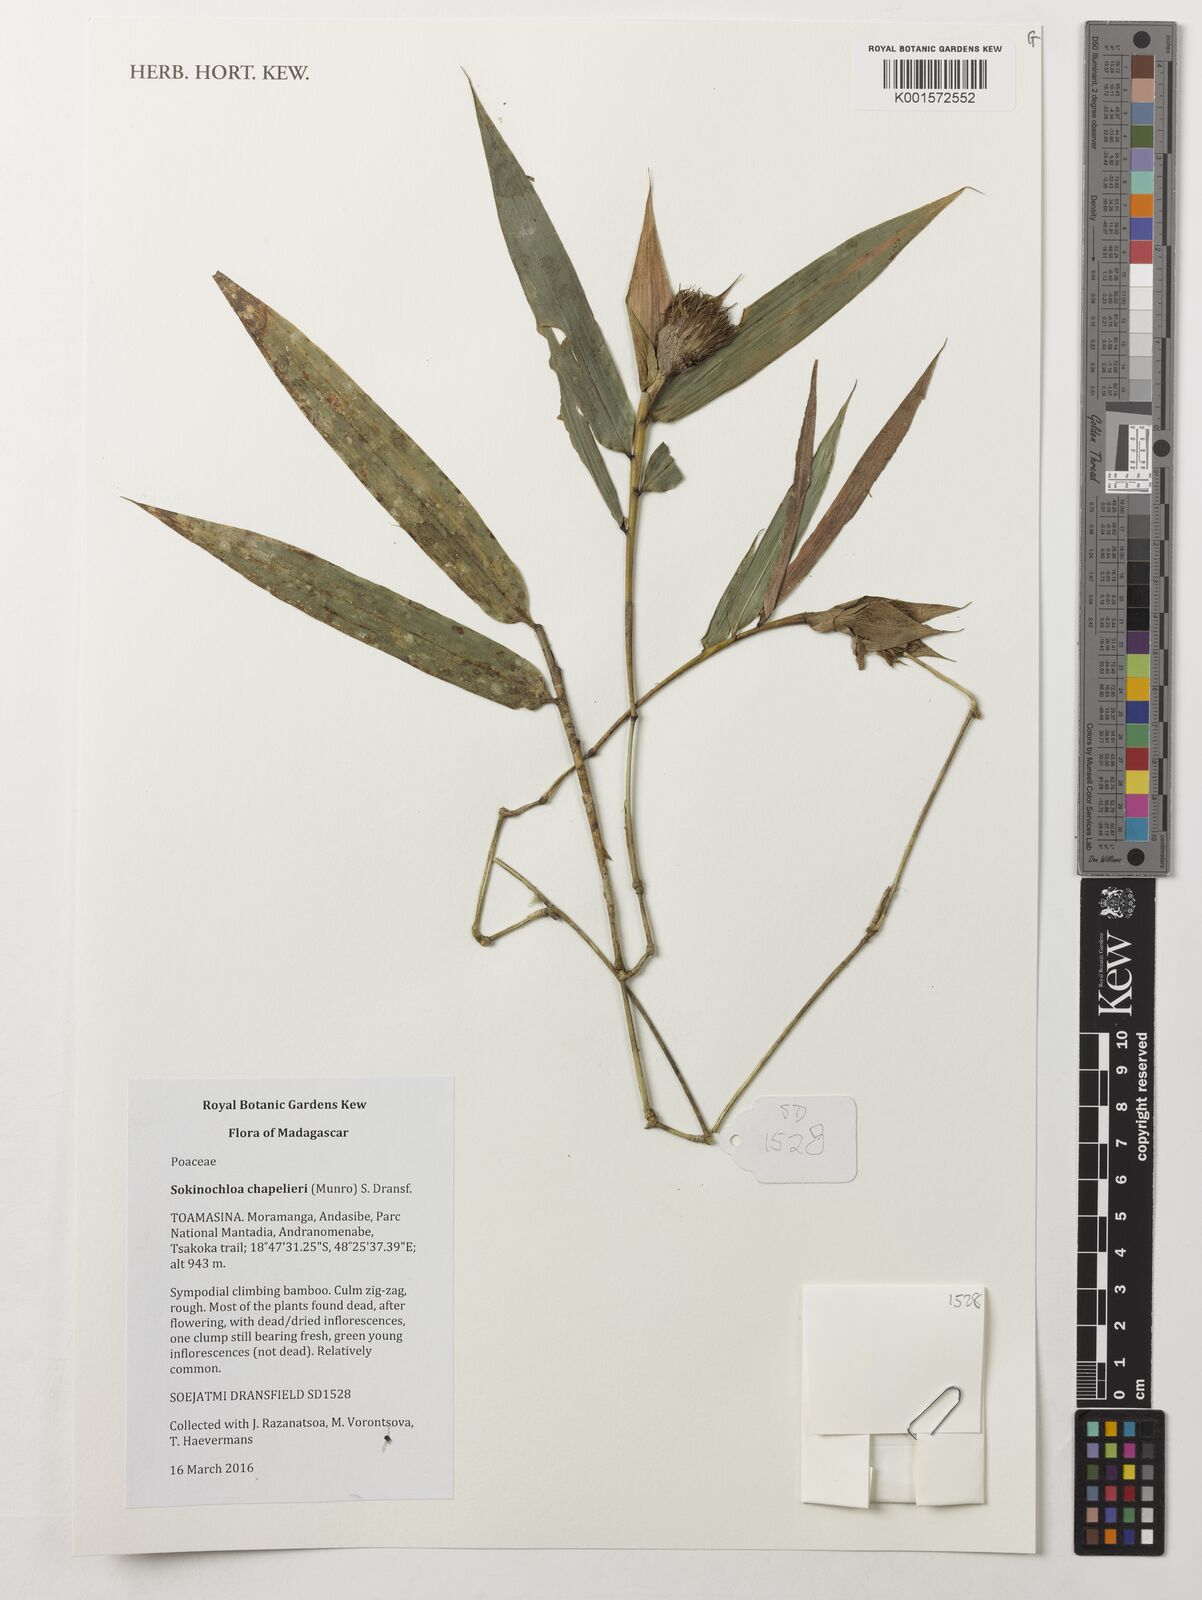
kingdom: Plantae
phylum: Tracheophyta
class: Liliopsida
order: Poales
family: Poaceae
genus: Sokinochloa
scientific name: Sokinochloa chapelieri
